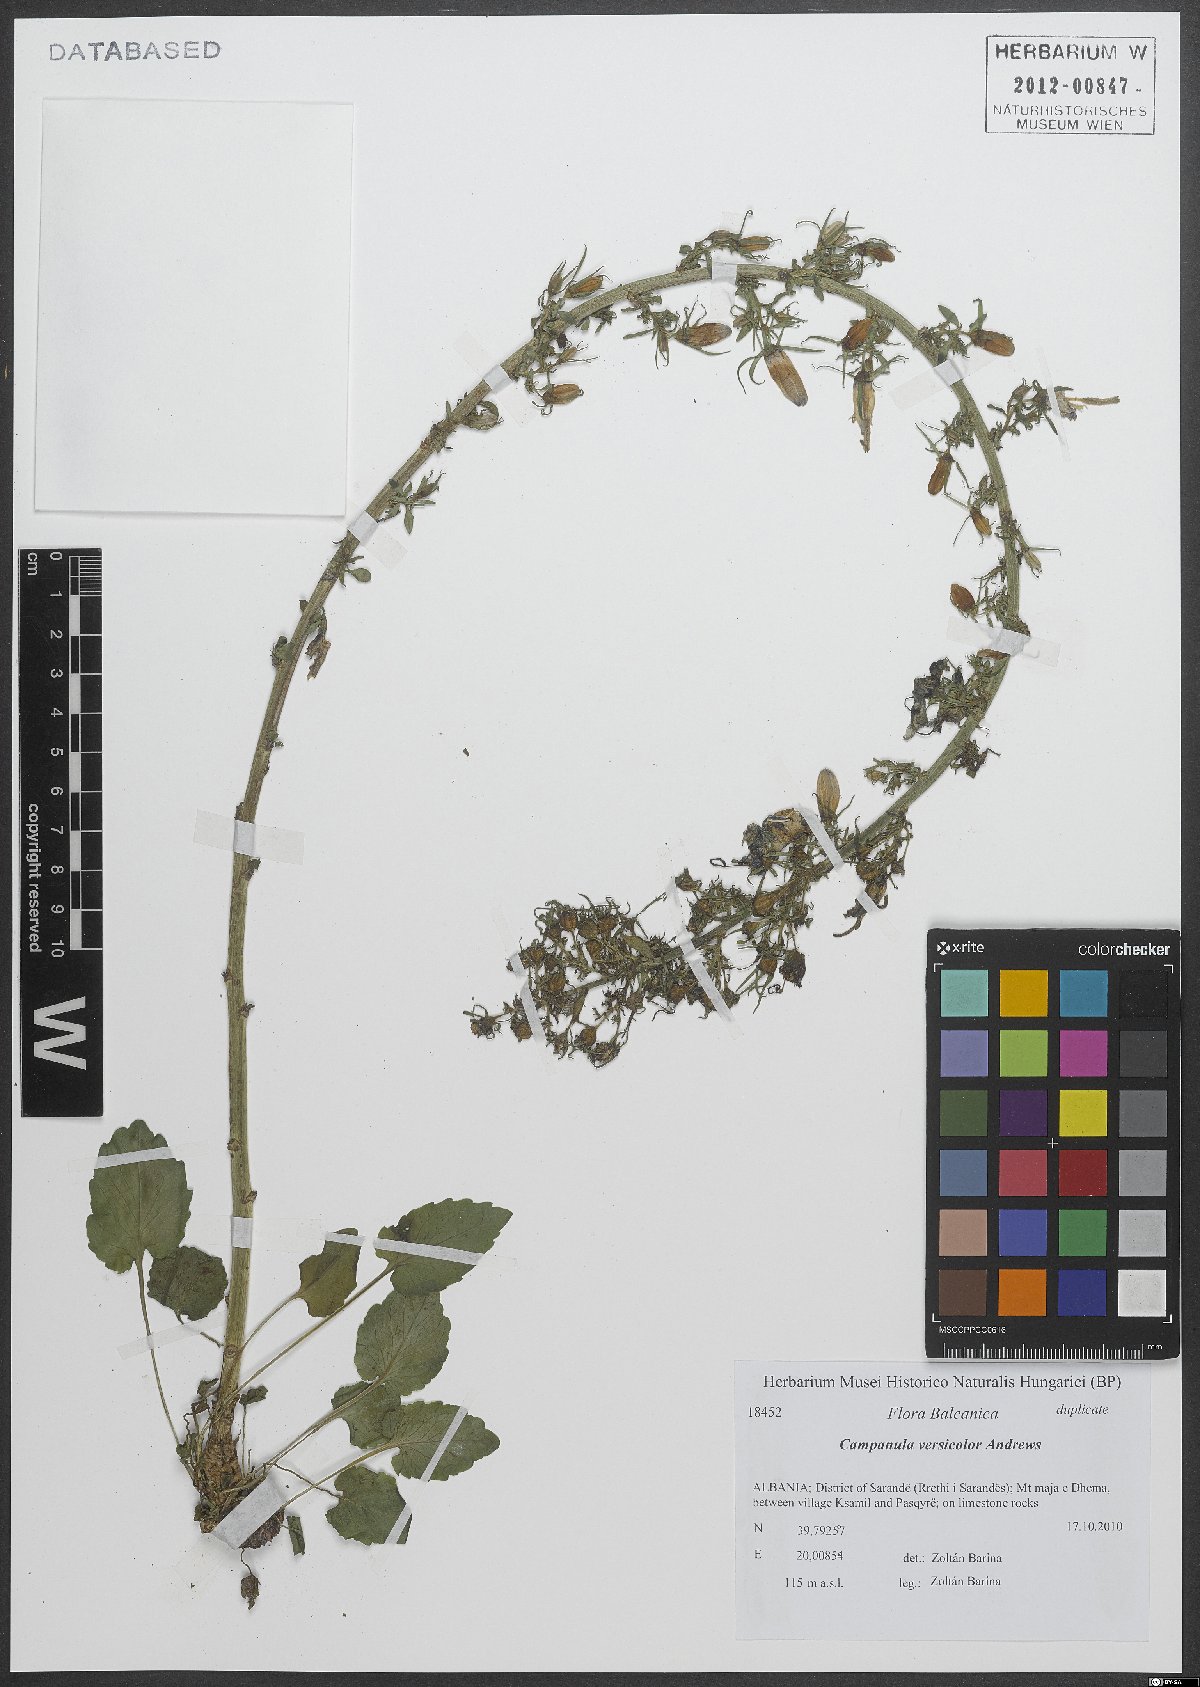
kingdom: Plantae
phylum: Tracheophyta
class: Magnoliopsida
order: Asterales
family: Campanulaceae
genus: Campanula
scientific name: Campanula versicolor
